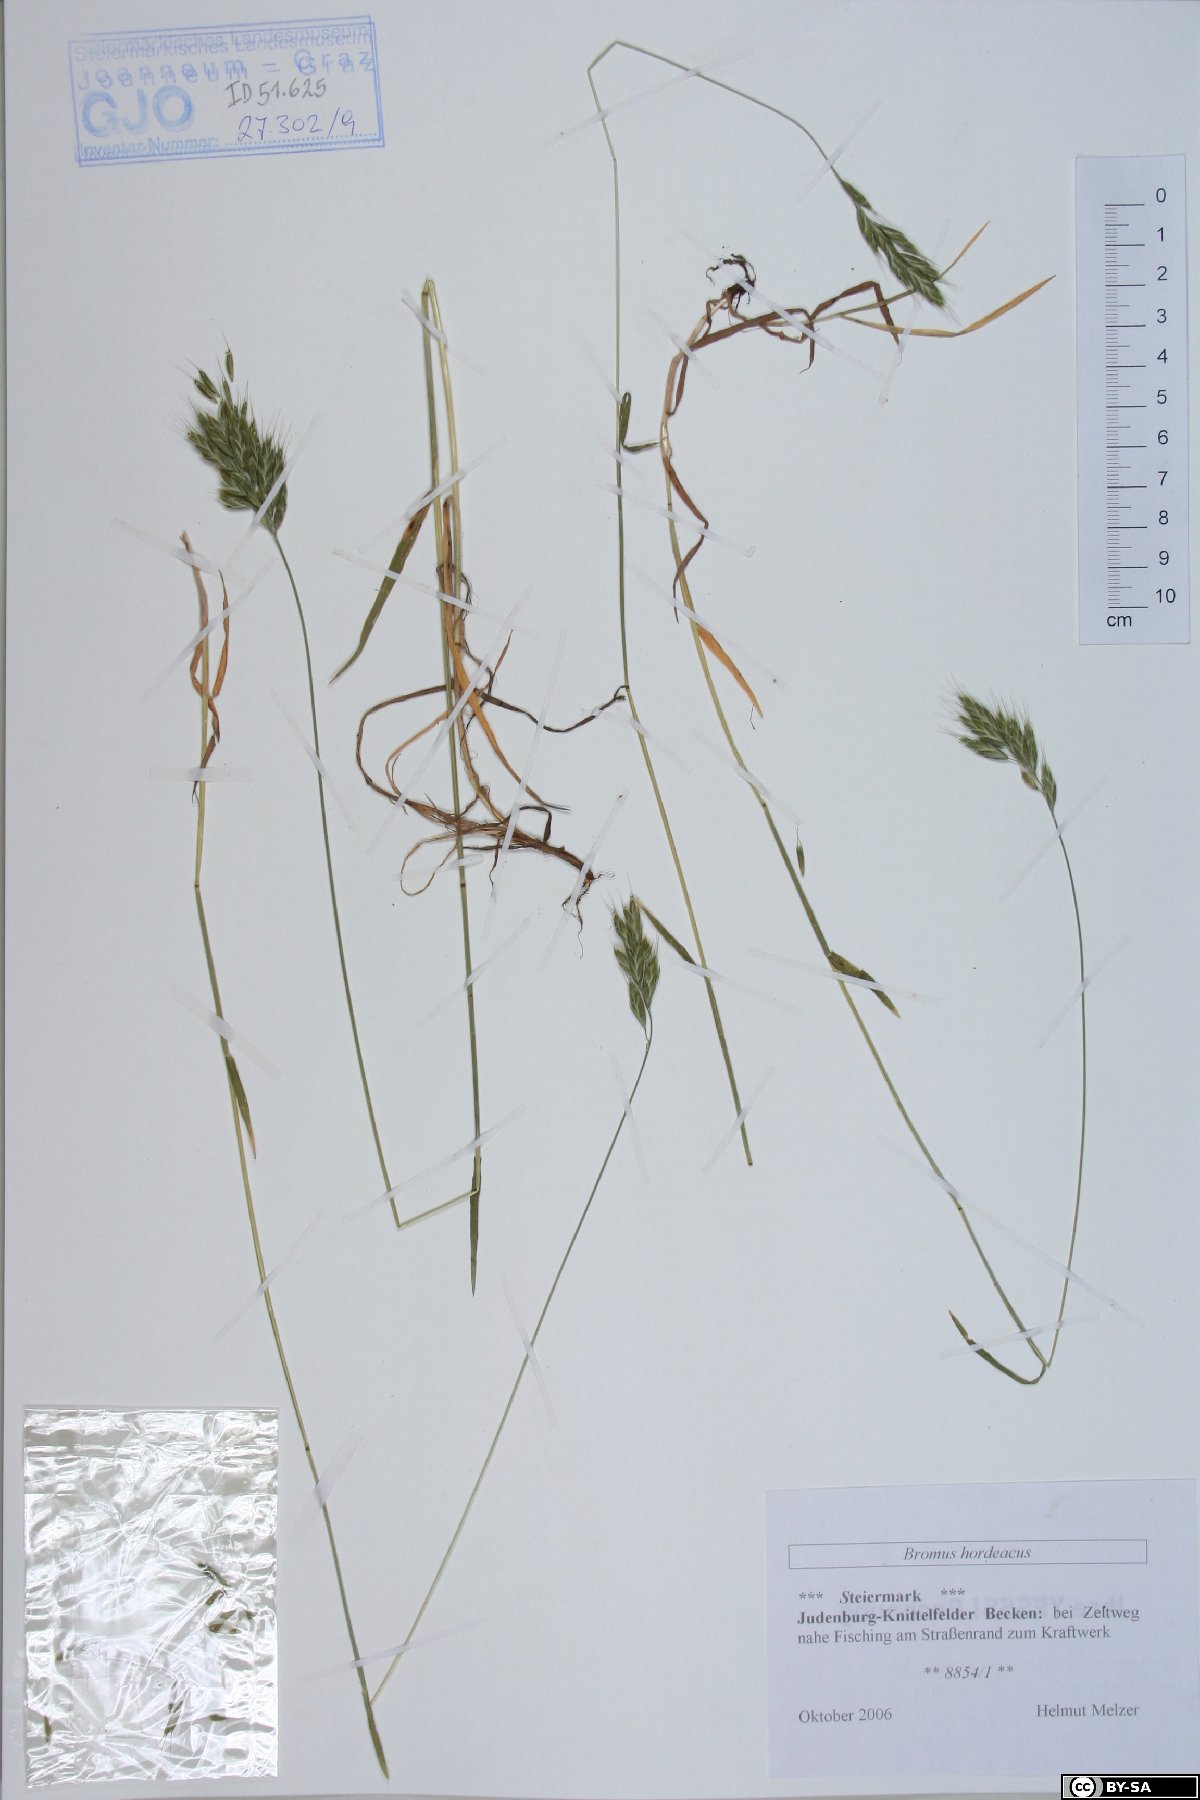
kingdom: Plantae
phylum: Tracheophyta
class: Liliopsida
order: Poales
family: Poaceae
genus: Bromus
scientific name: Bromus hordeaceus
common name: Soft brome
